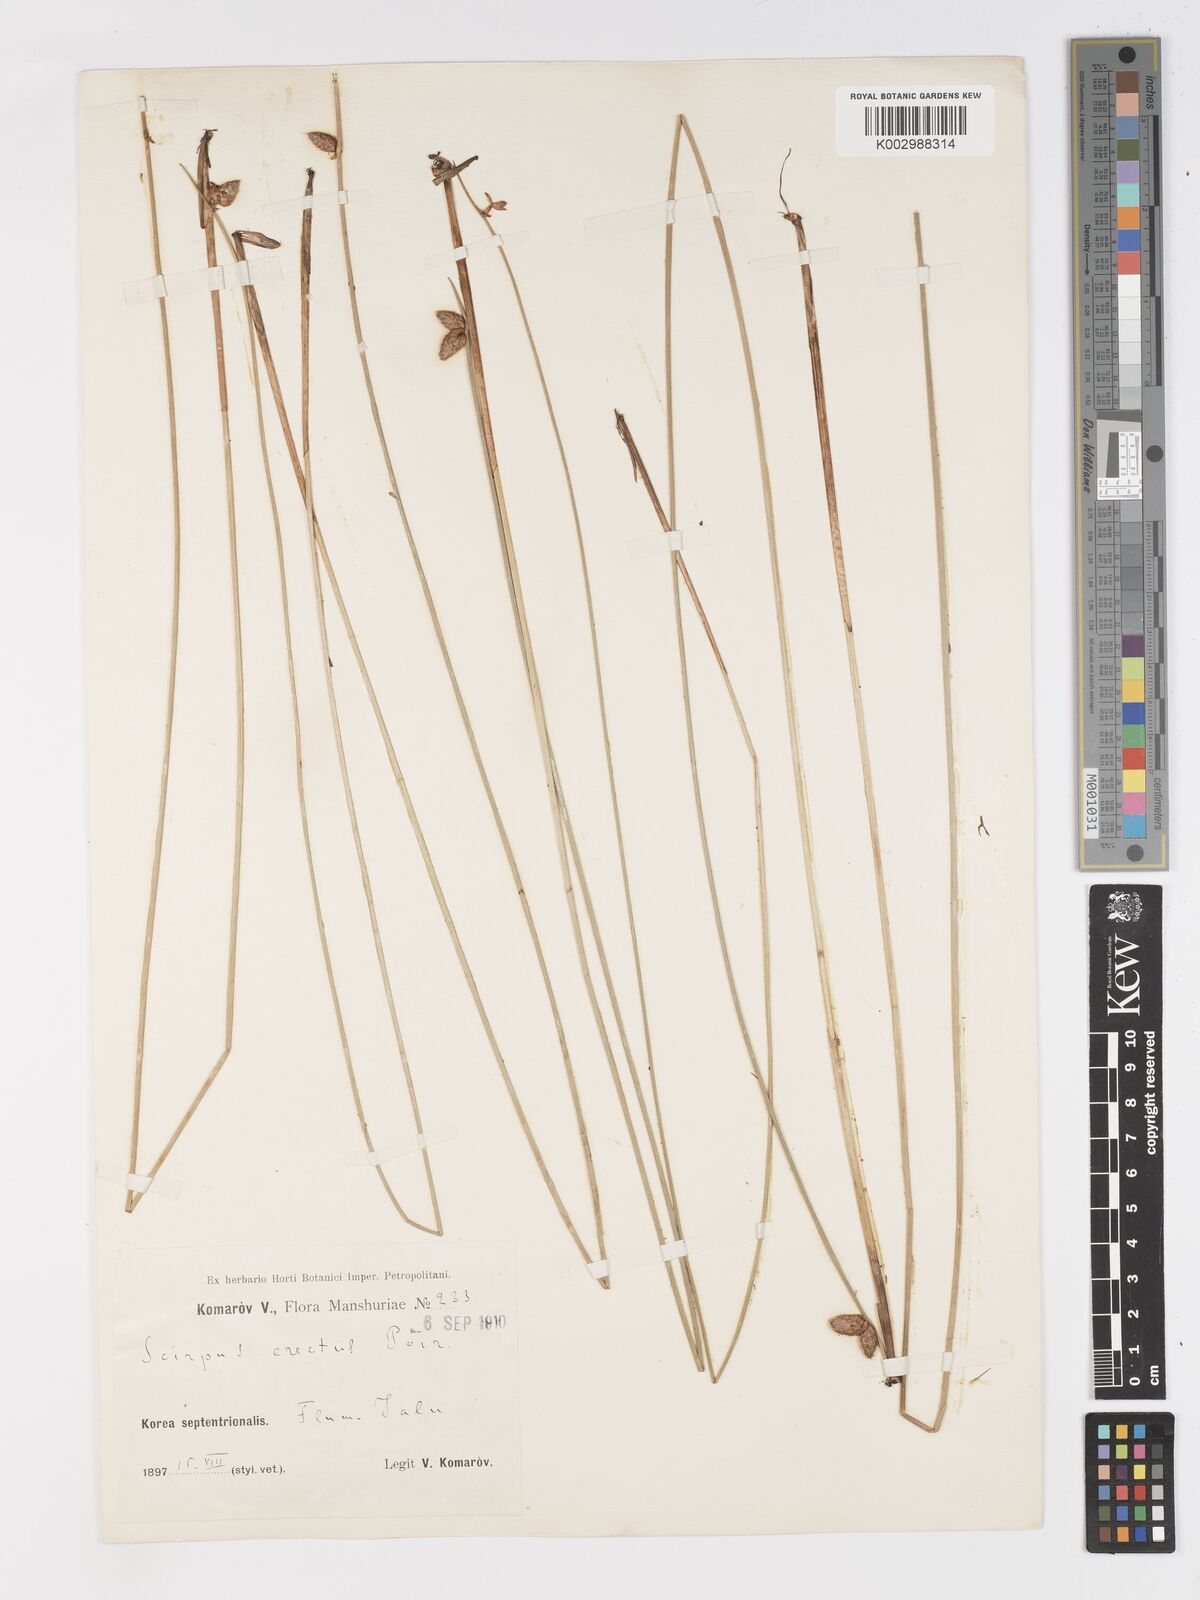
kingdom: Plantae
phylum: Tracheophyta
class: Liliopsida
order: Poales
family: Cyperaceae
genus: Schoenoplectiella
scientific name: Schoenoplectiella juncoides
